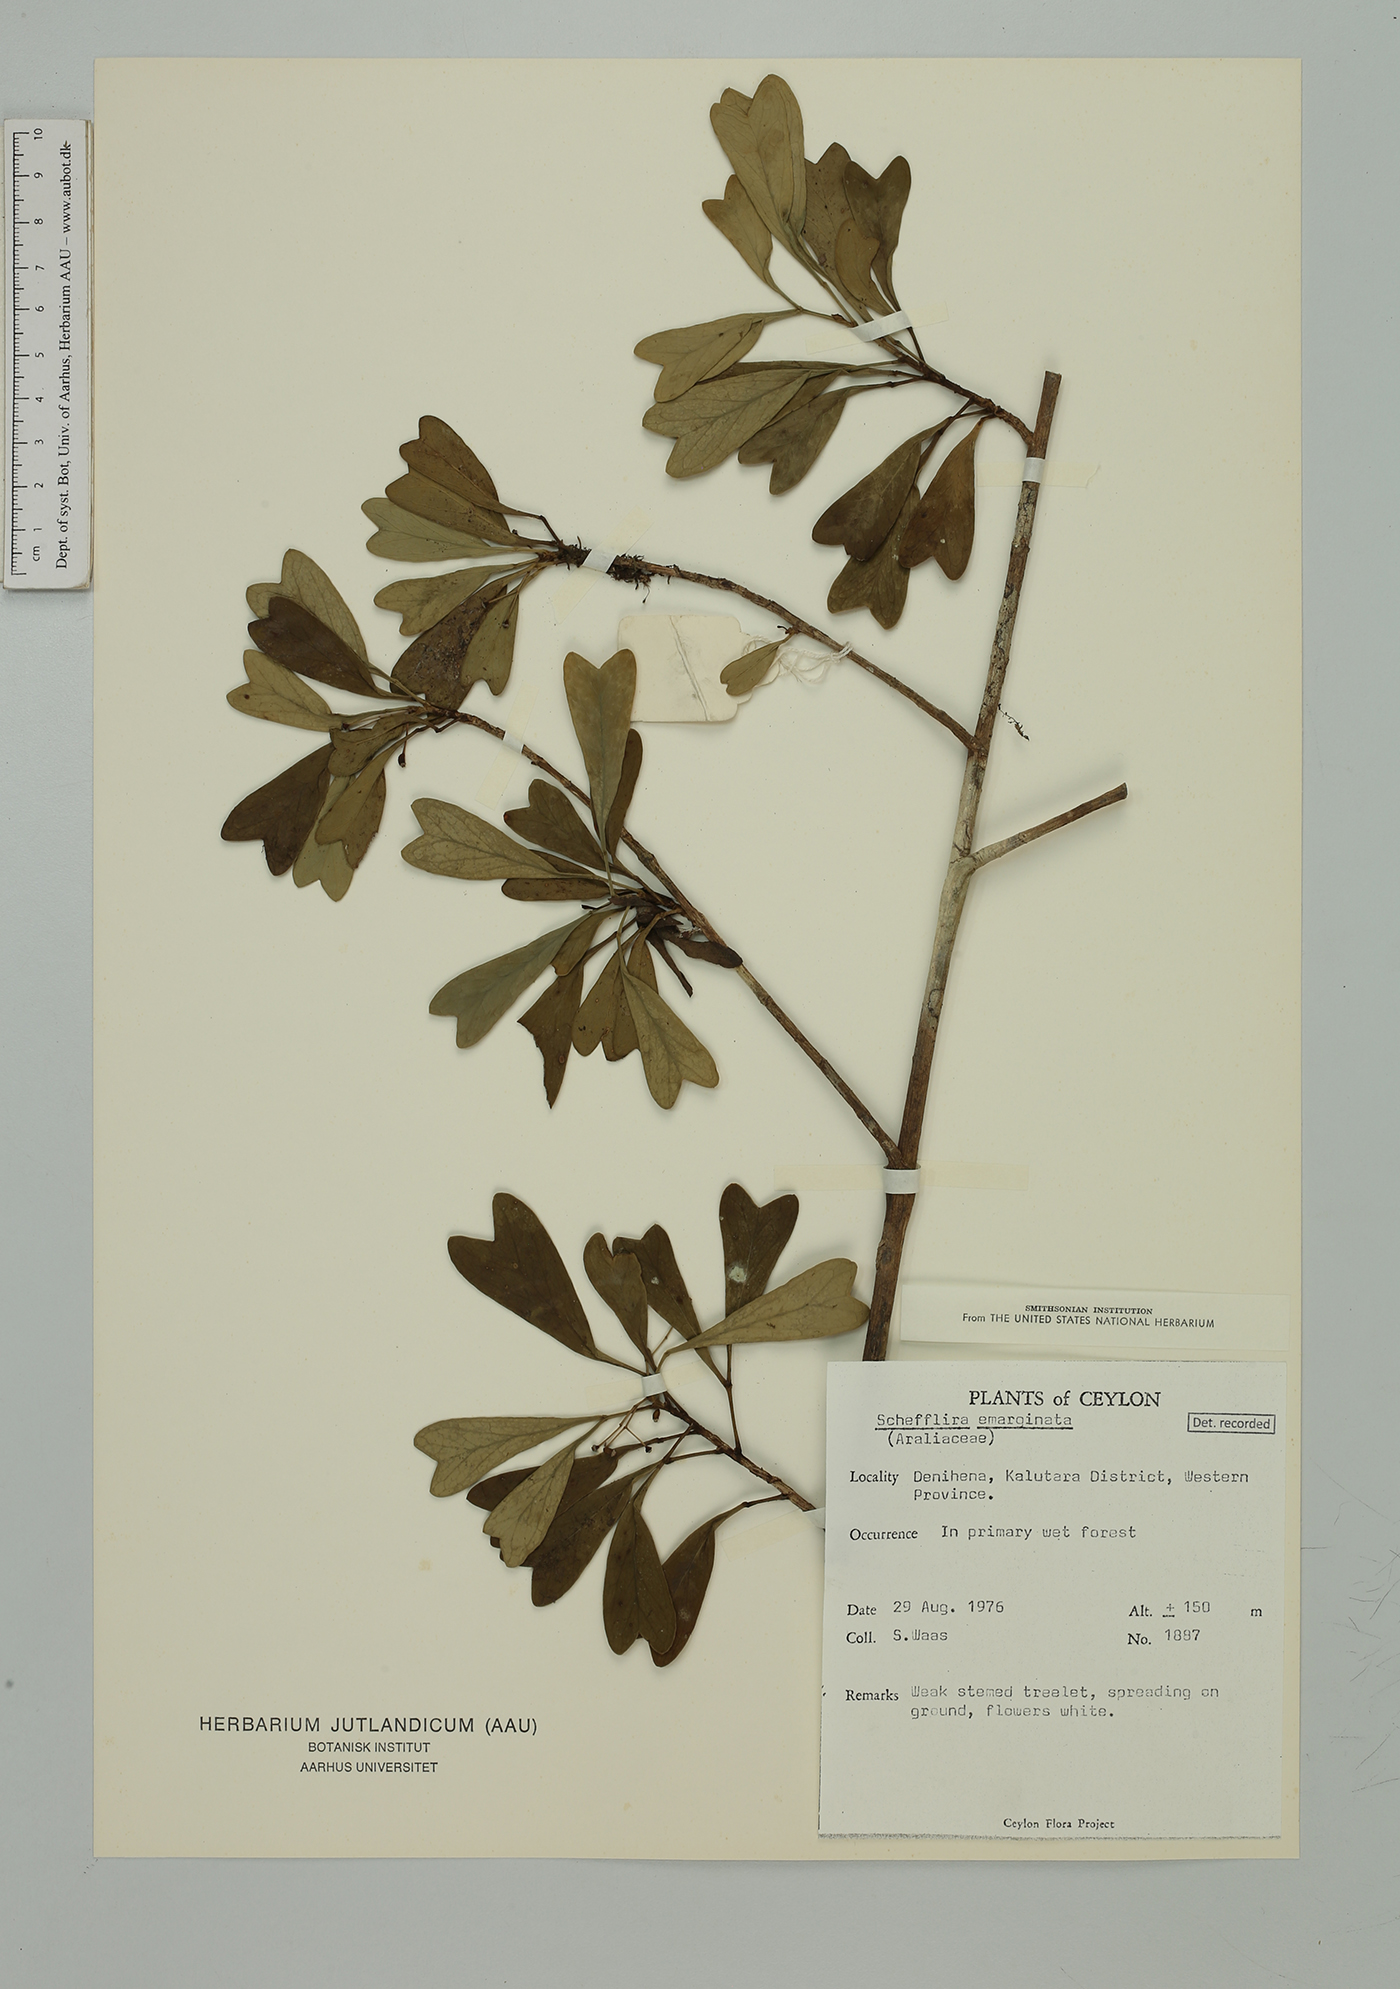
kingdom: Plantae
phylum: Tracheophyta
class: Magnoliopsida
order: Apiales
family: Araliaceae
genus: Heptapleurum
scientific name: Heptapleurum emarginatum
